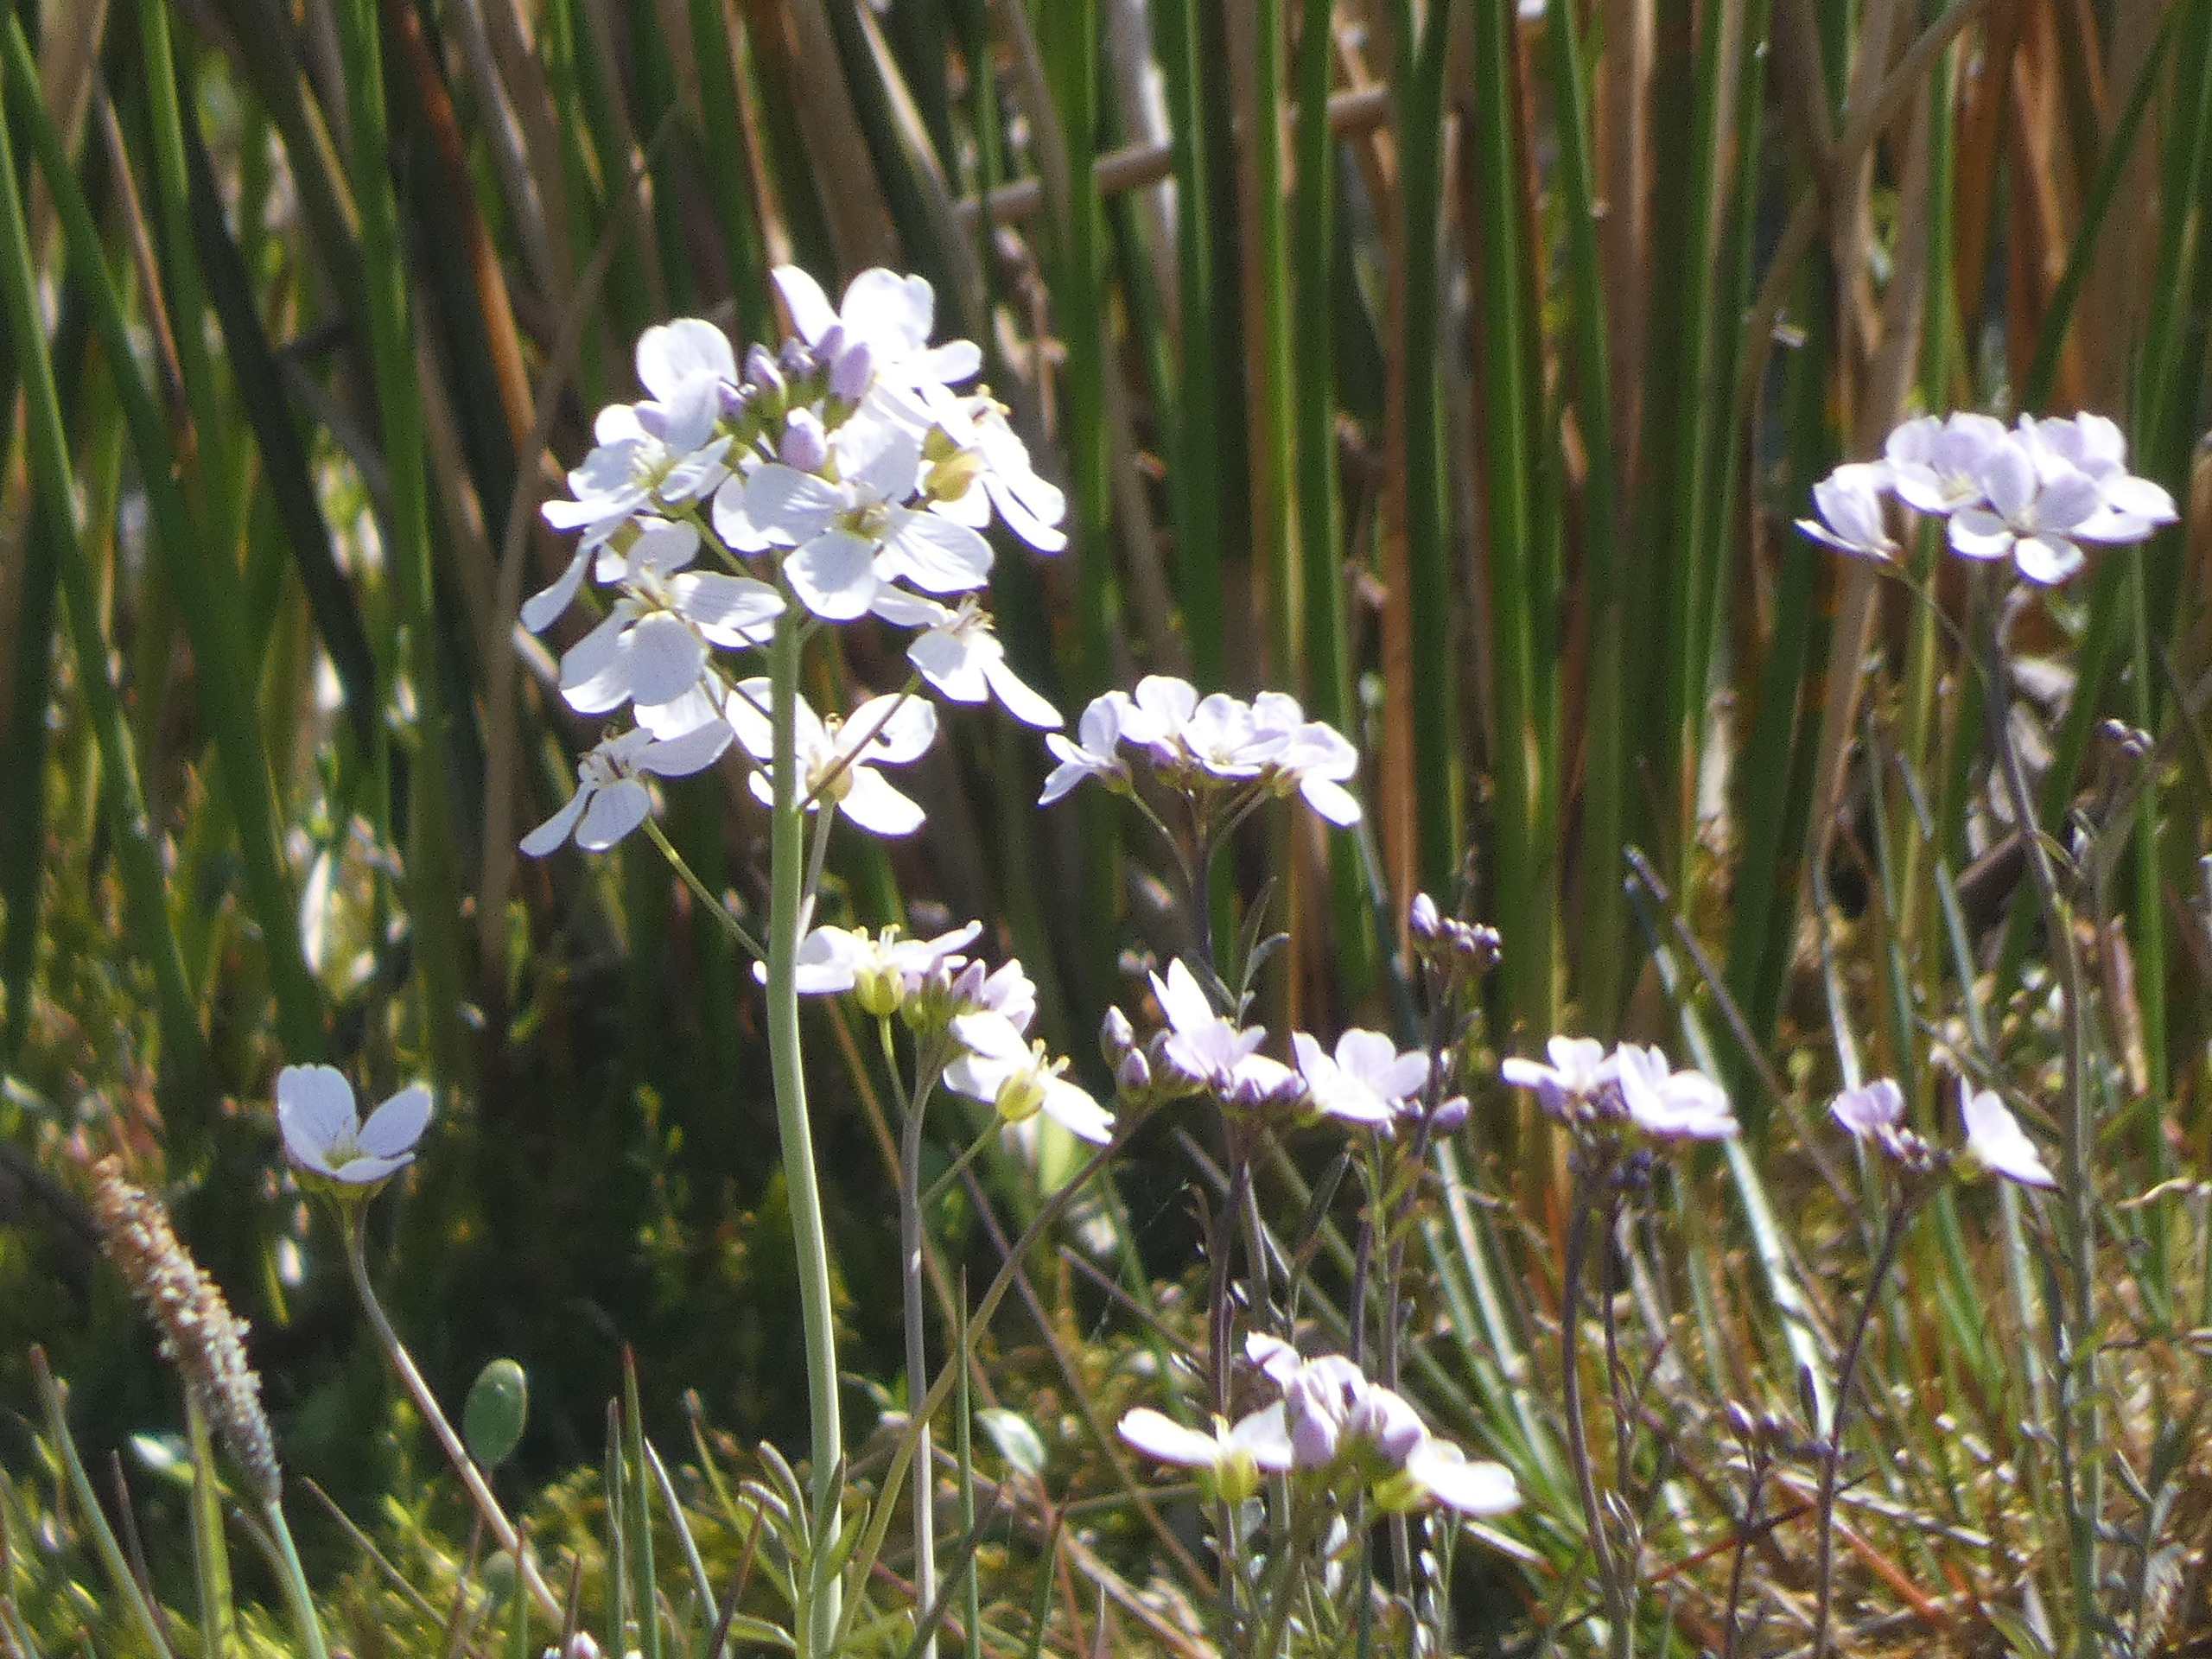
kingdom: Plantae
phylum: Tracheophyta
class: Magnoliopsida
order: Brassicales
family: Brassicaceae
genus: Cardamine
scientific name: Cardamine pratensis
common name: Engkarse
